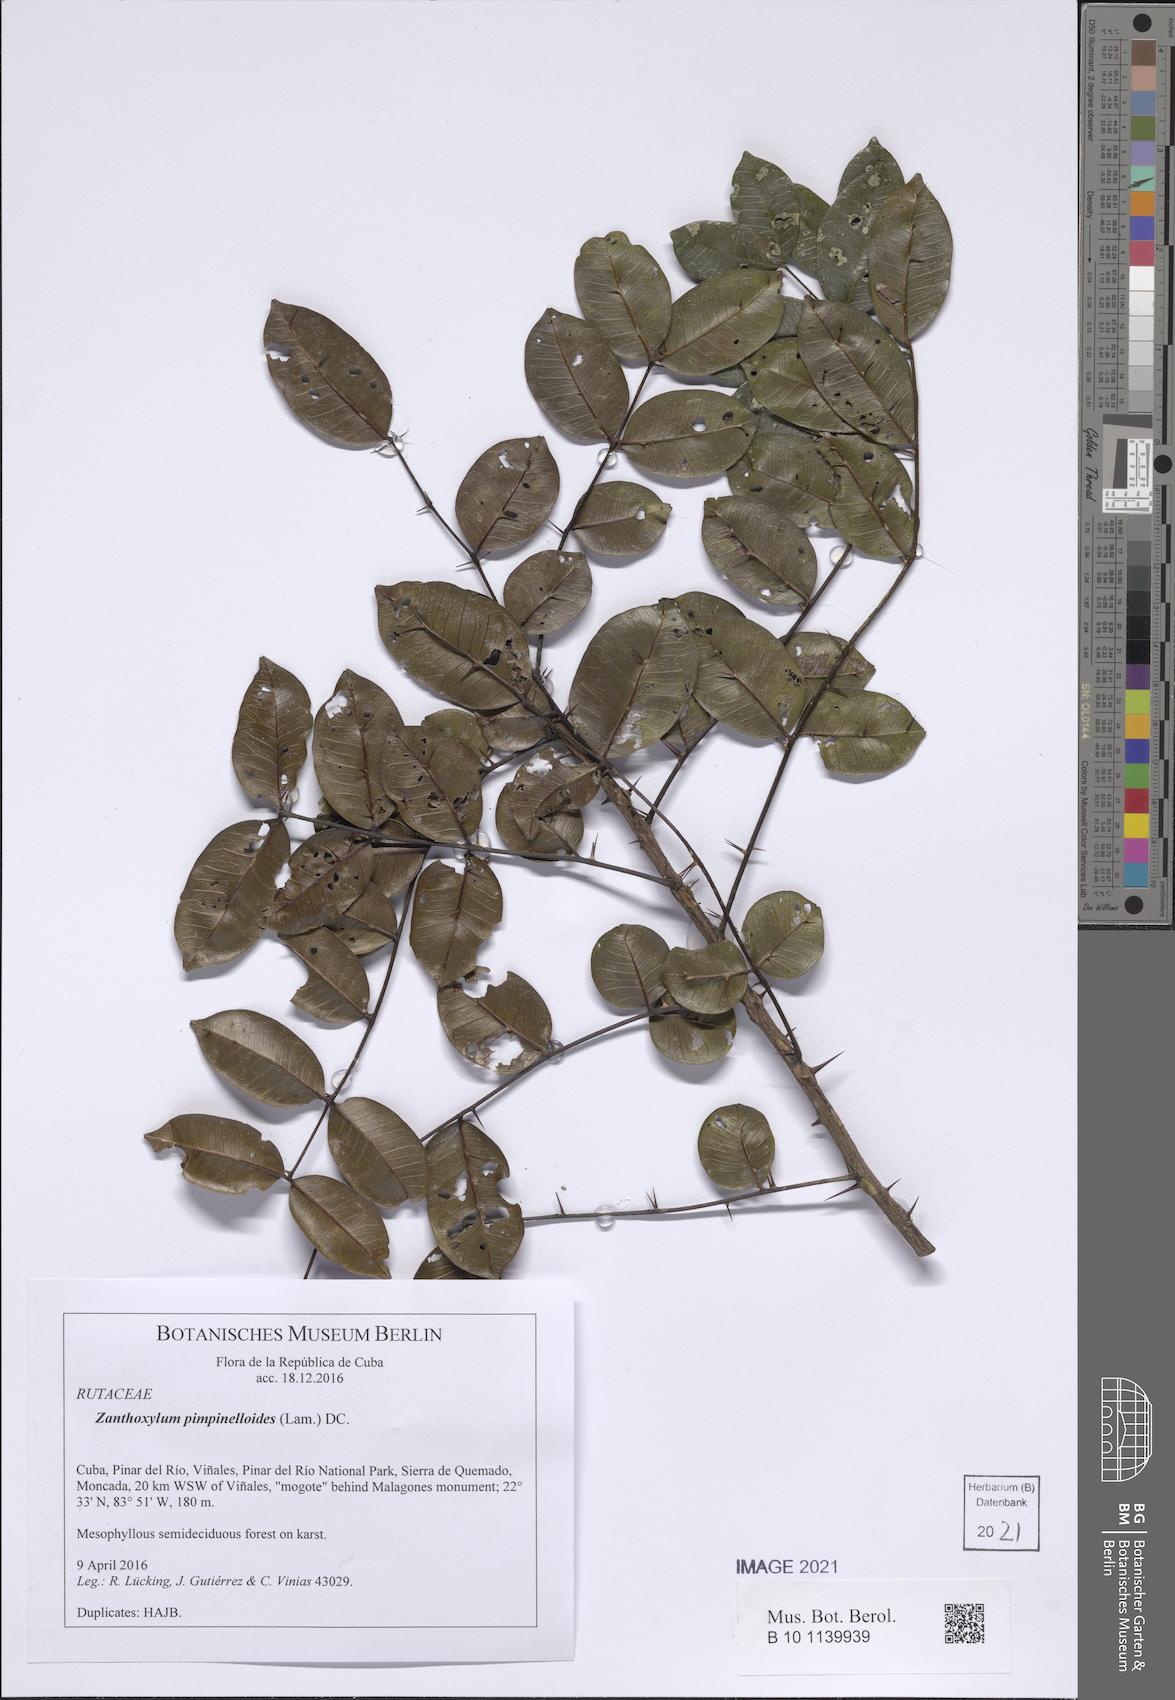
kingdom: Plantae
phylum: Tracheophyta
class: Magnoliopsida
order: Sapindales
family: Rutaceae
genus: Zanthoxylum
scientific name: Zanthoxylum pimpinelloides
